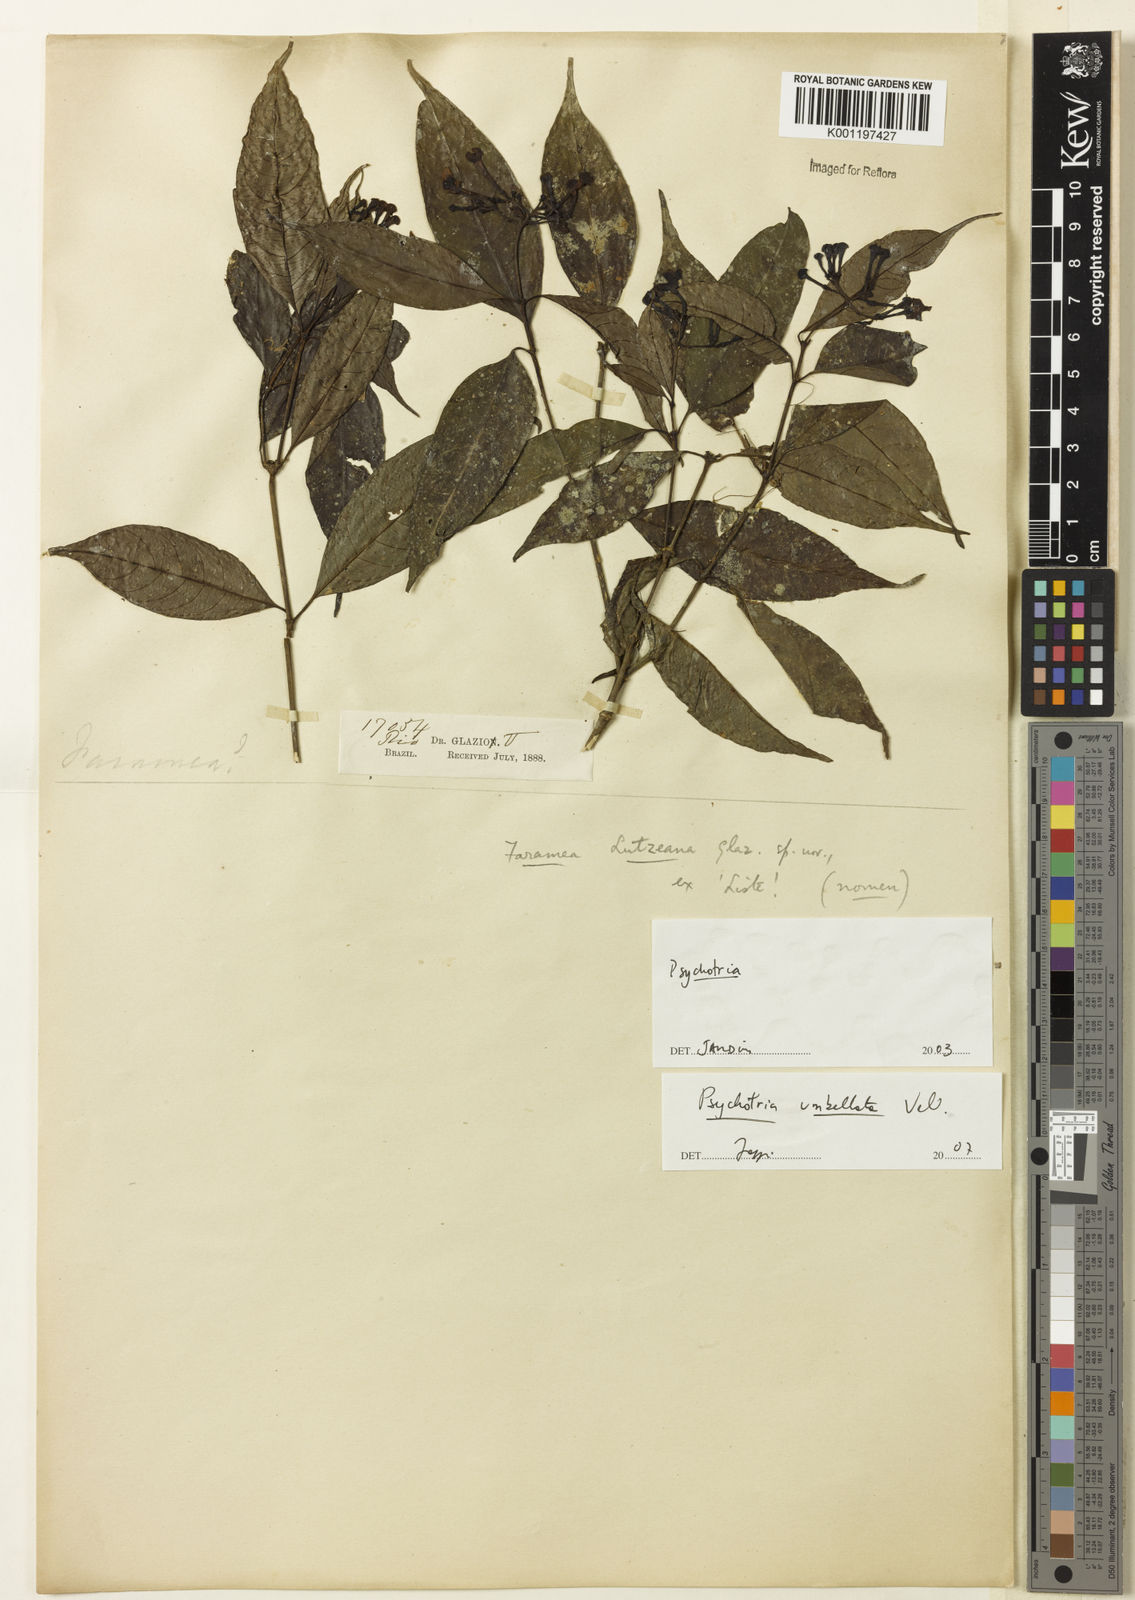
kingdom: Plantae
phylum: Tracheophyta
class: Magnoliopsida
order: Gentianales
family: Rubiaceae
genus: Psychotria
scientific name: Psychotria
